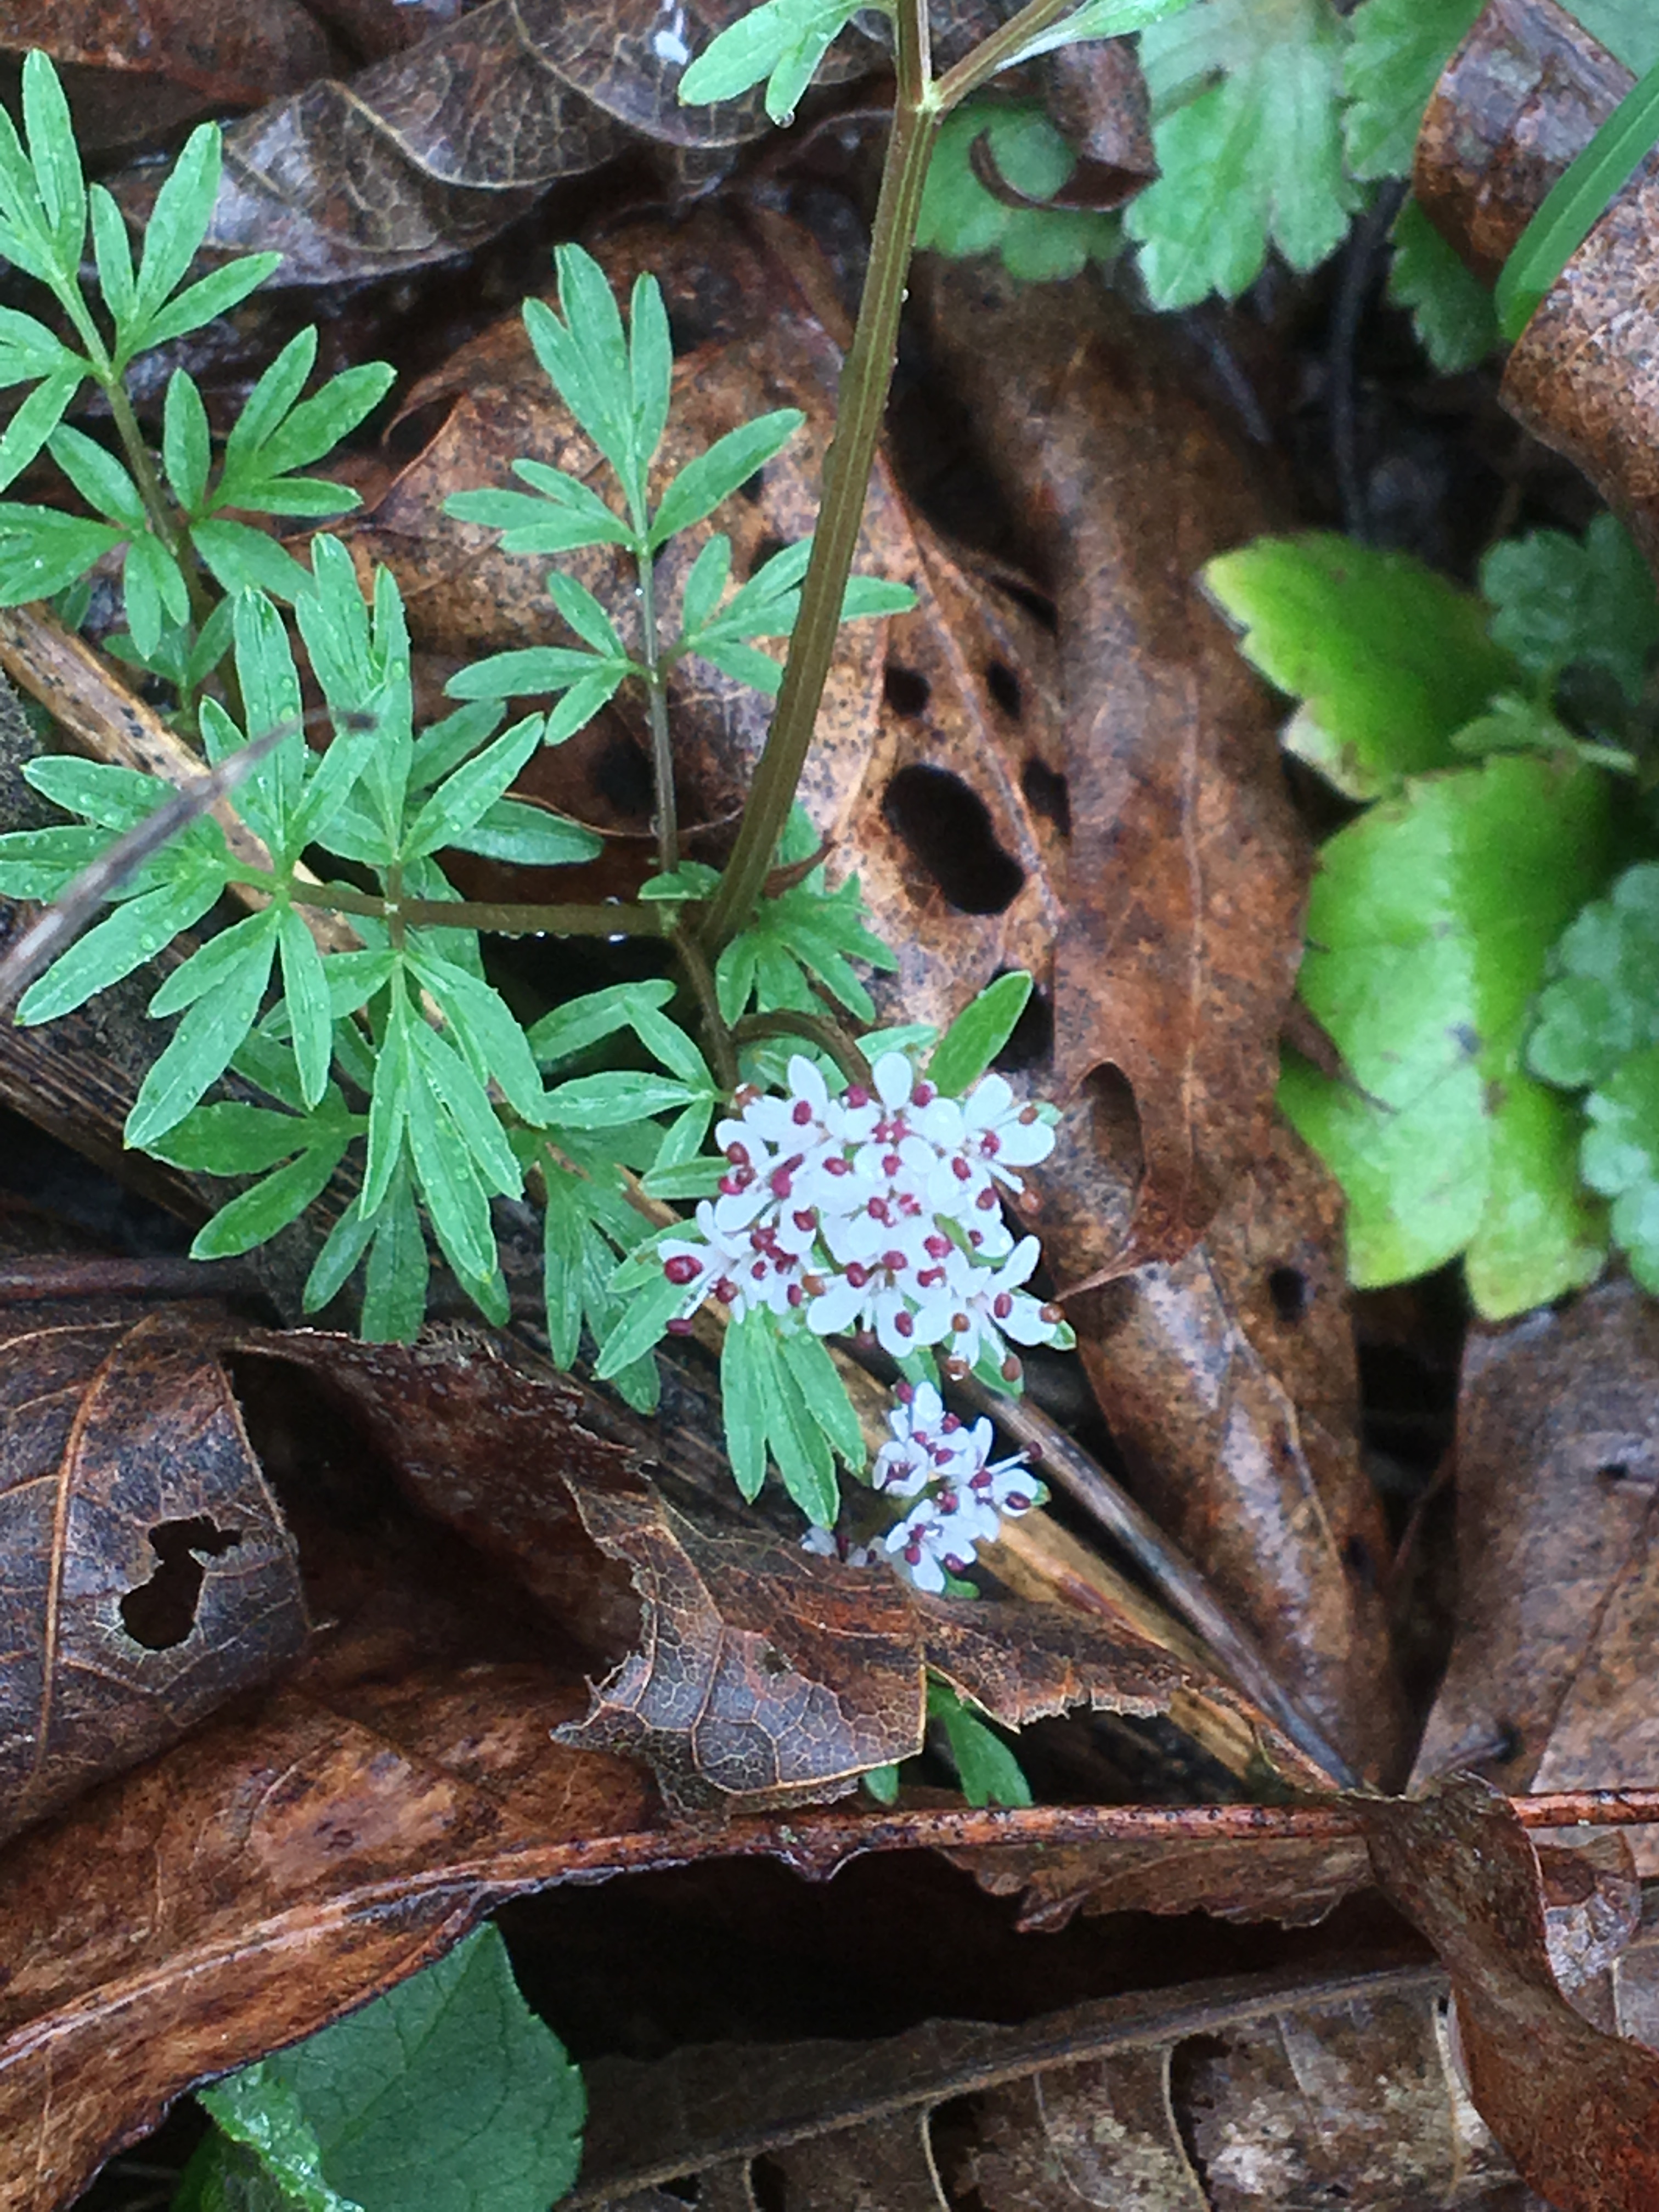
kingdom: Plantae
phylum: Tracheophyta
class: Magnoliopsida
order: Apiales
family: Apiaceae
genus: Erigenia
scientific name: Erigenia bulbosa
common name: Harbinger of spring
